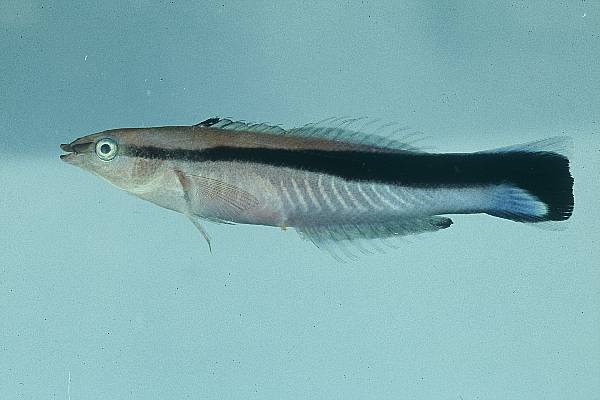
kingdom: Animalia
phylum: Chordata
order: Perciformes
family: Labridae
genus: Labroides
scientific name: Labroides dimidiatus
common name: Blue diesel wrasse
